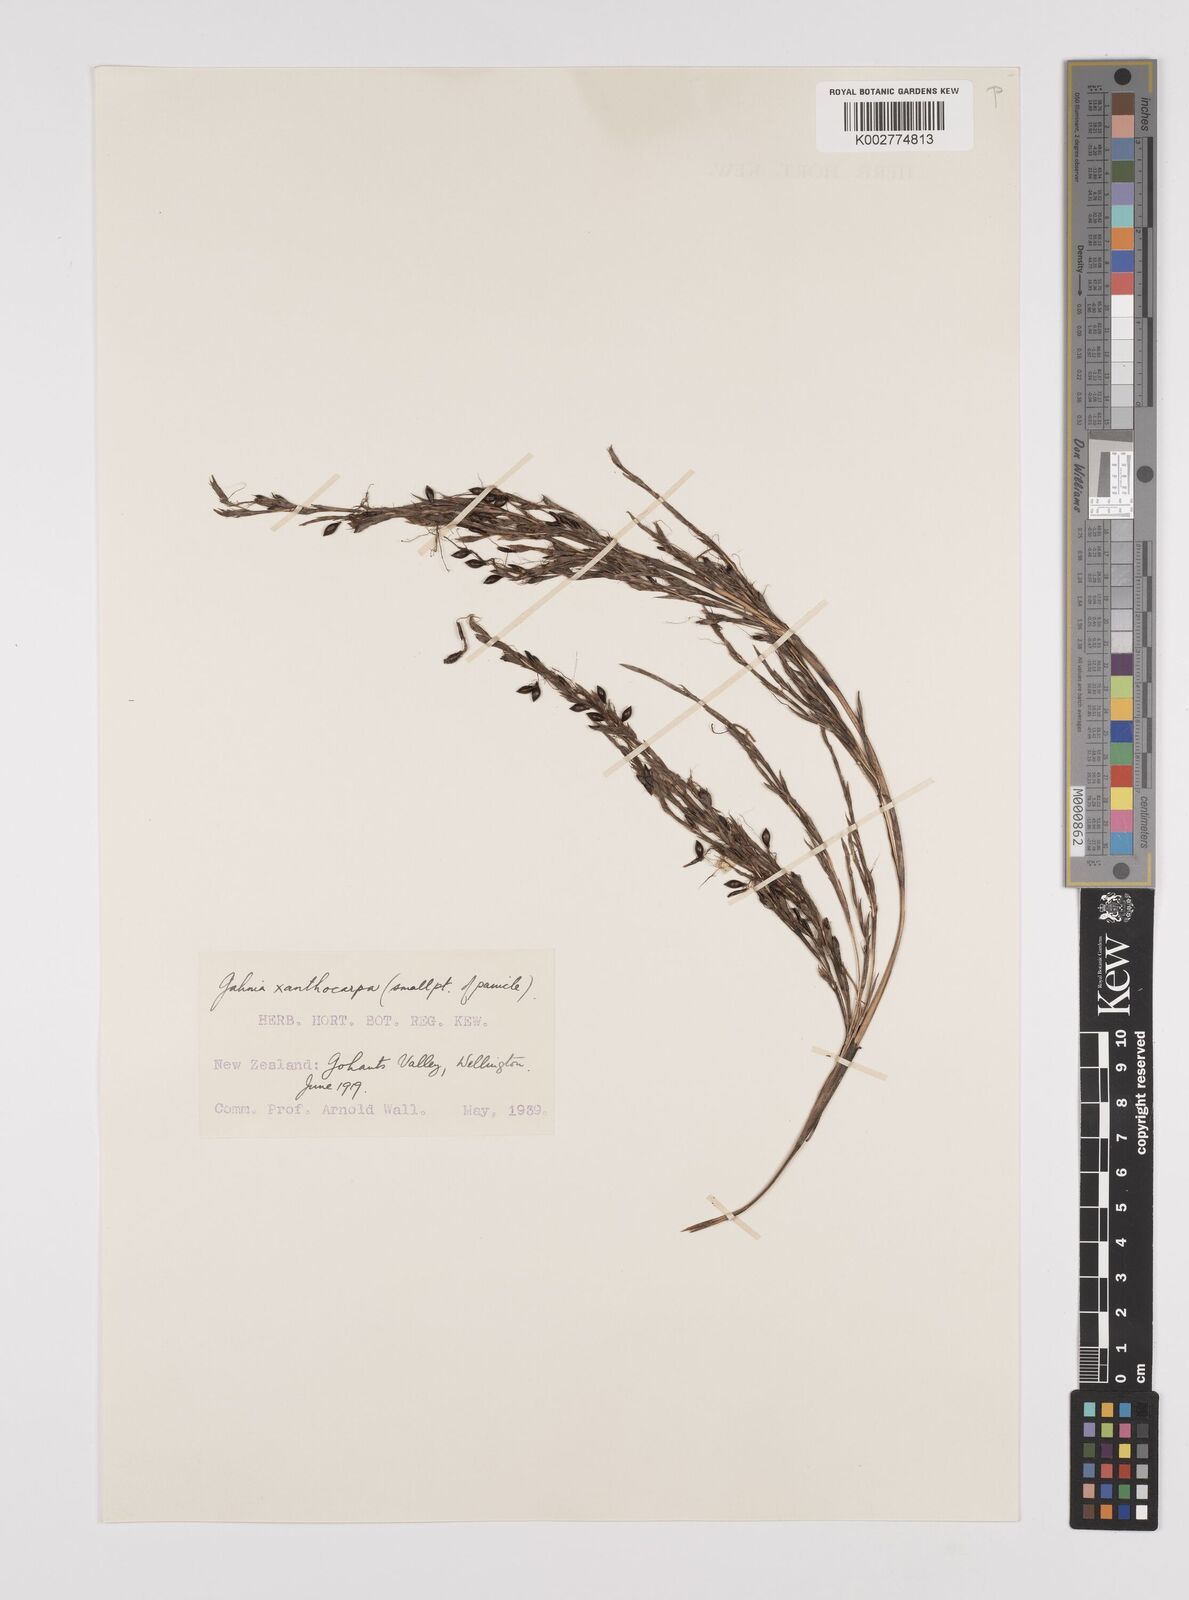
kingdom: Plantae
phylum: Tracheophyta
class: Liliopsida
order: Poales
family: Cyperaceae
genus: Gahnia
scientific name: Gahnia xanthocarpa
